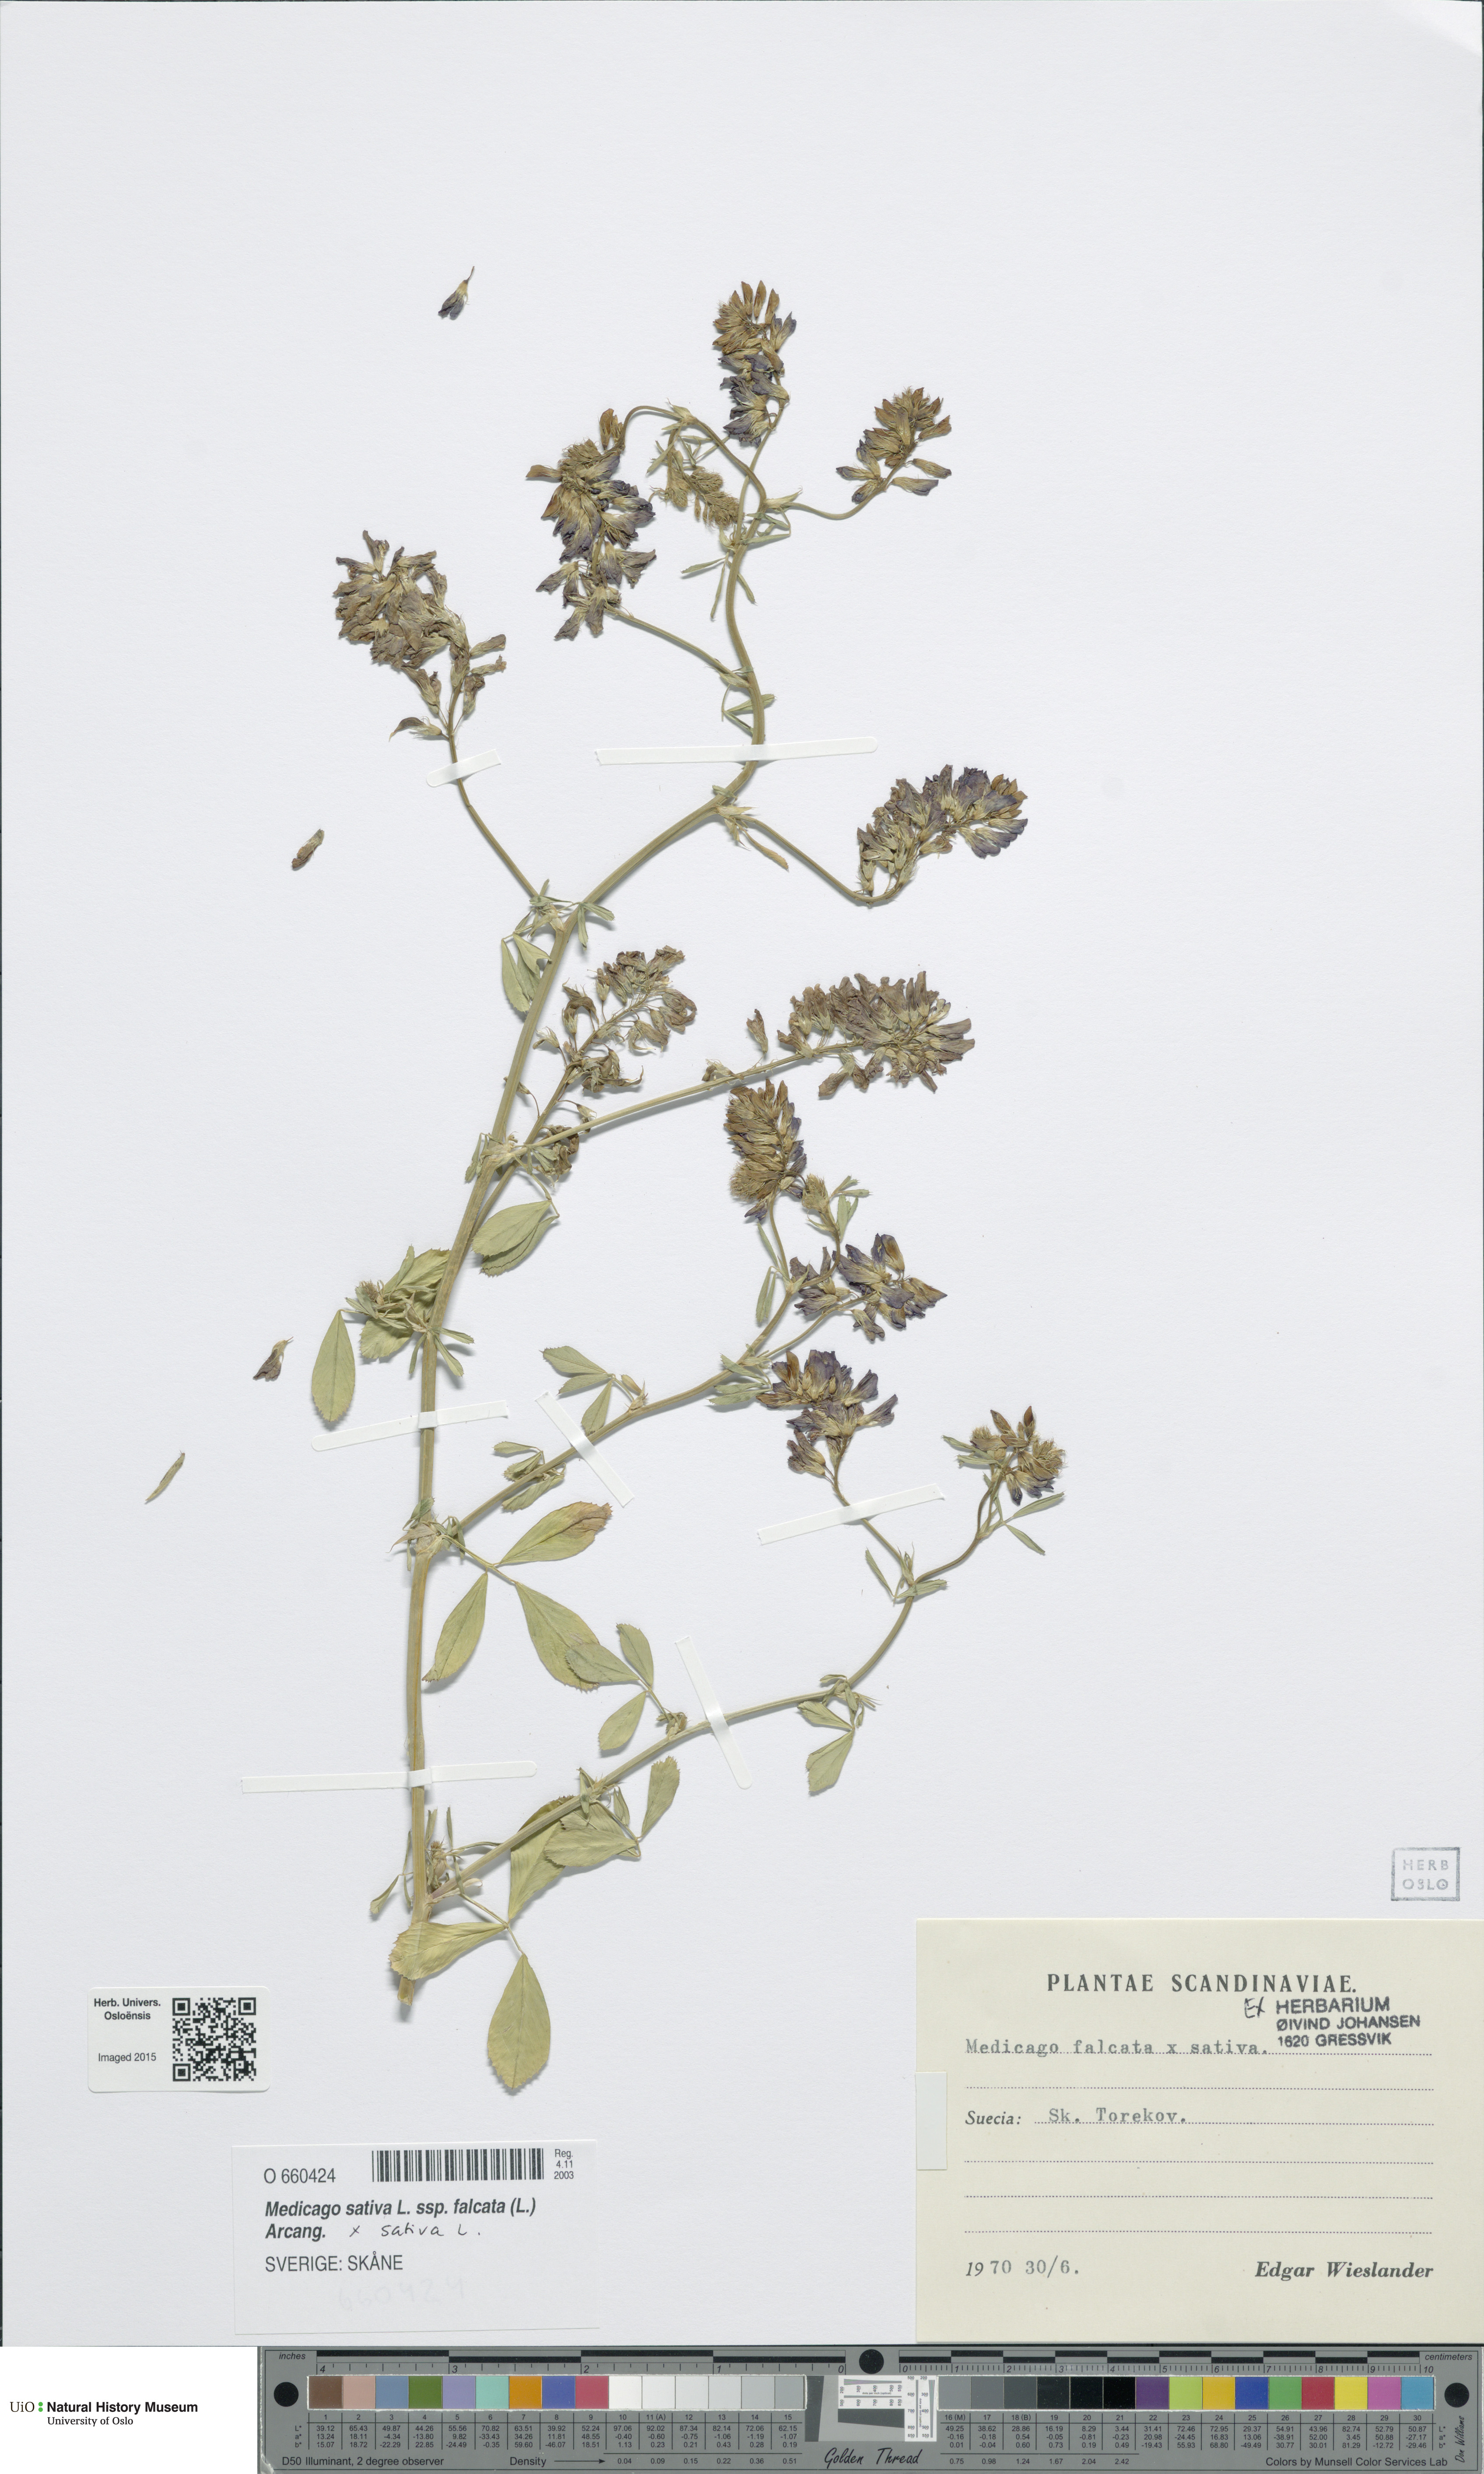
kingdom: Plantae
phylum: Tracheophyta
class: Magnoliopsida
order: Fabales
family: Fabaceae
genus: Medicago
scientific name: Medicago
